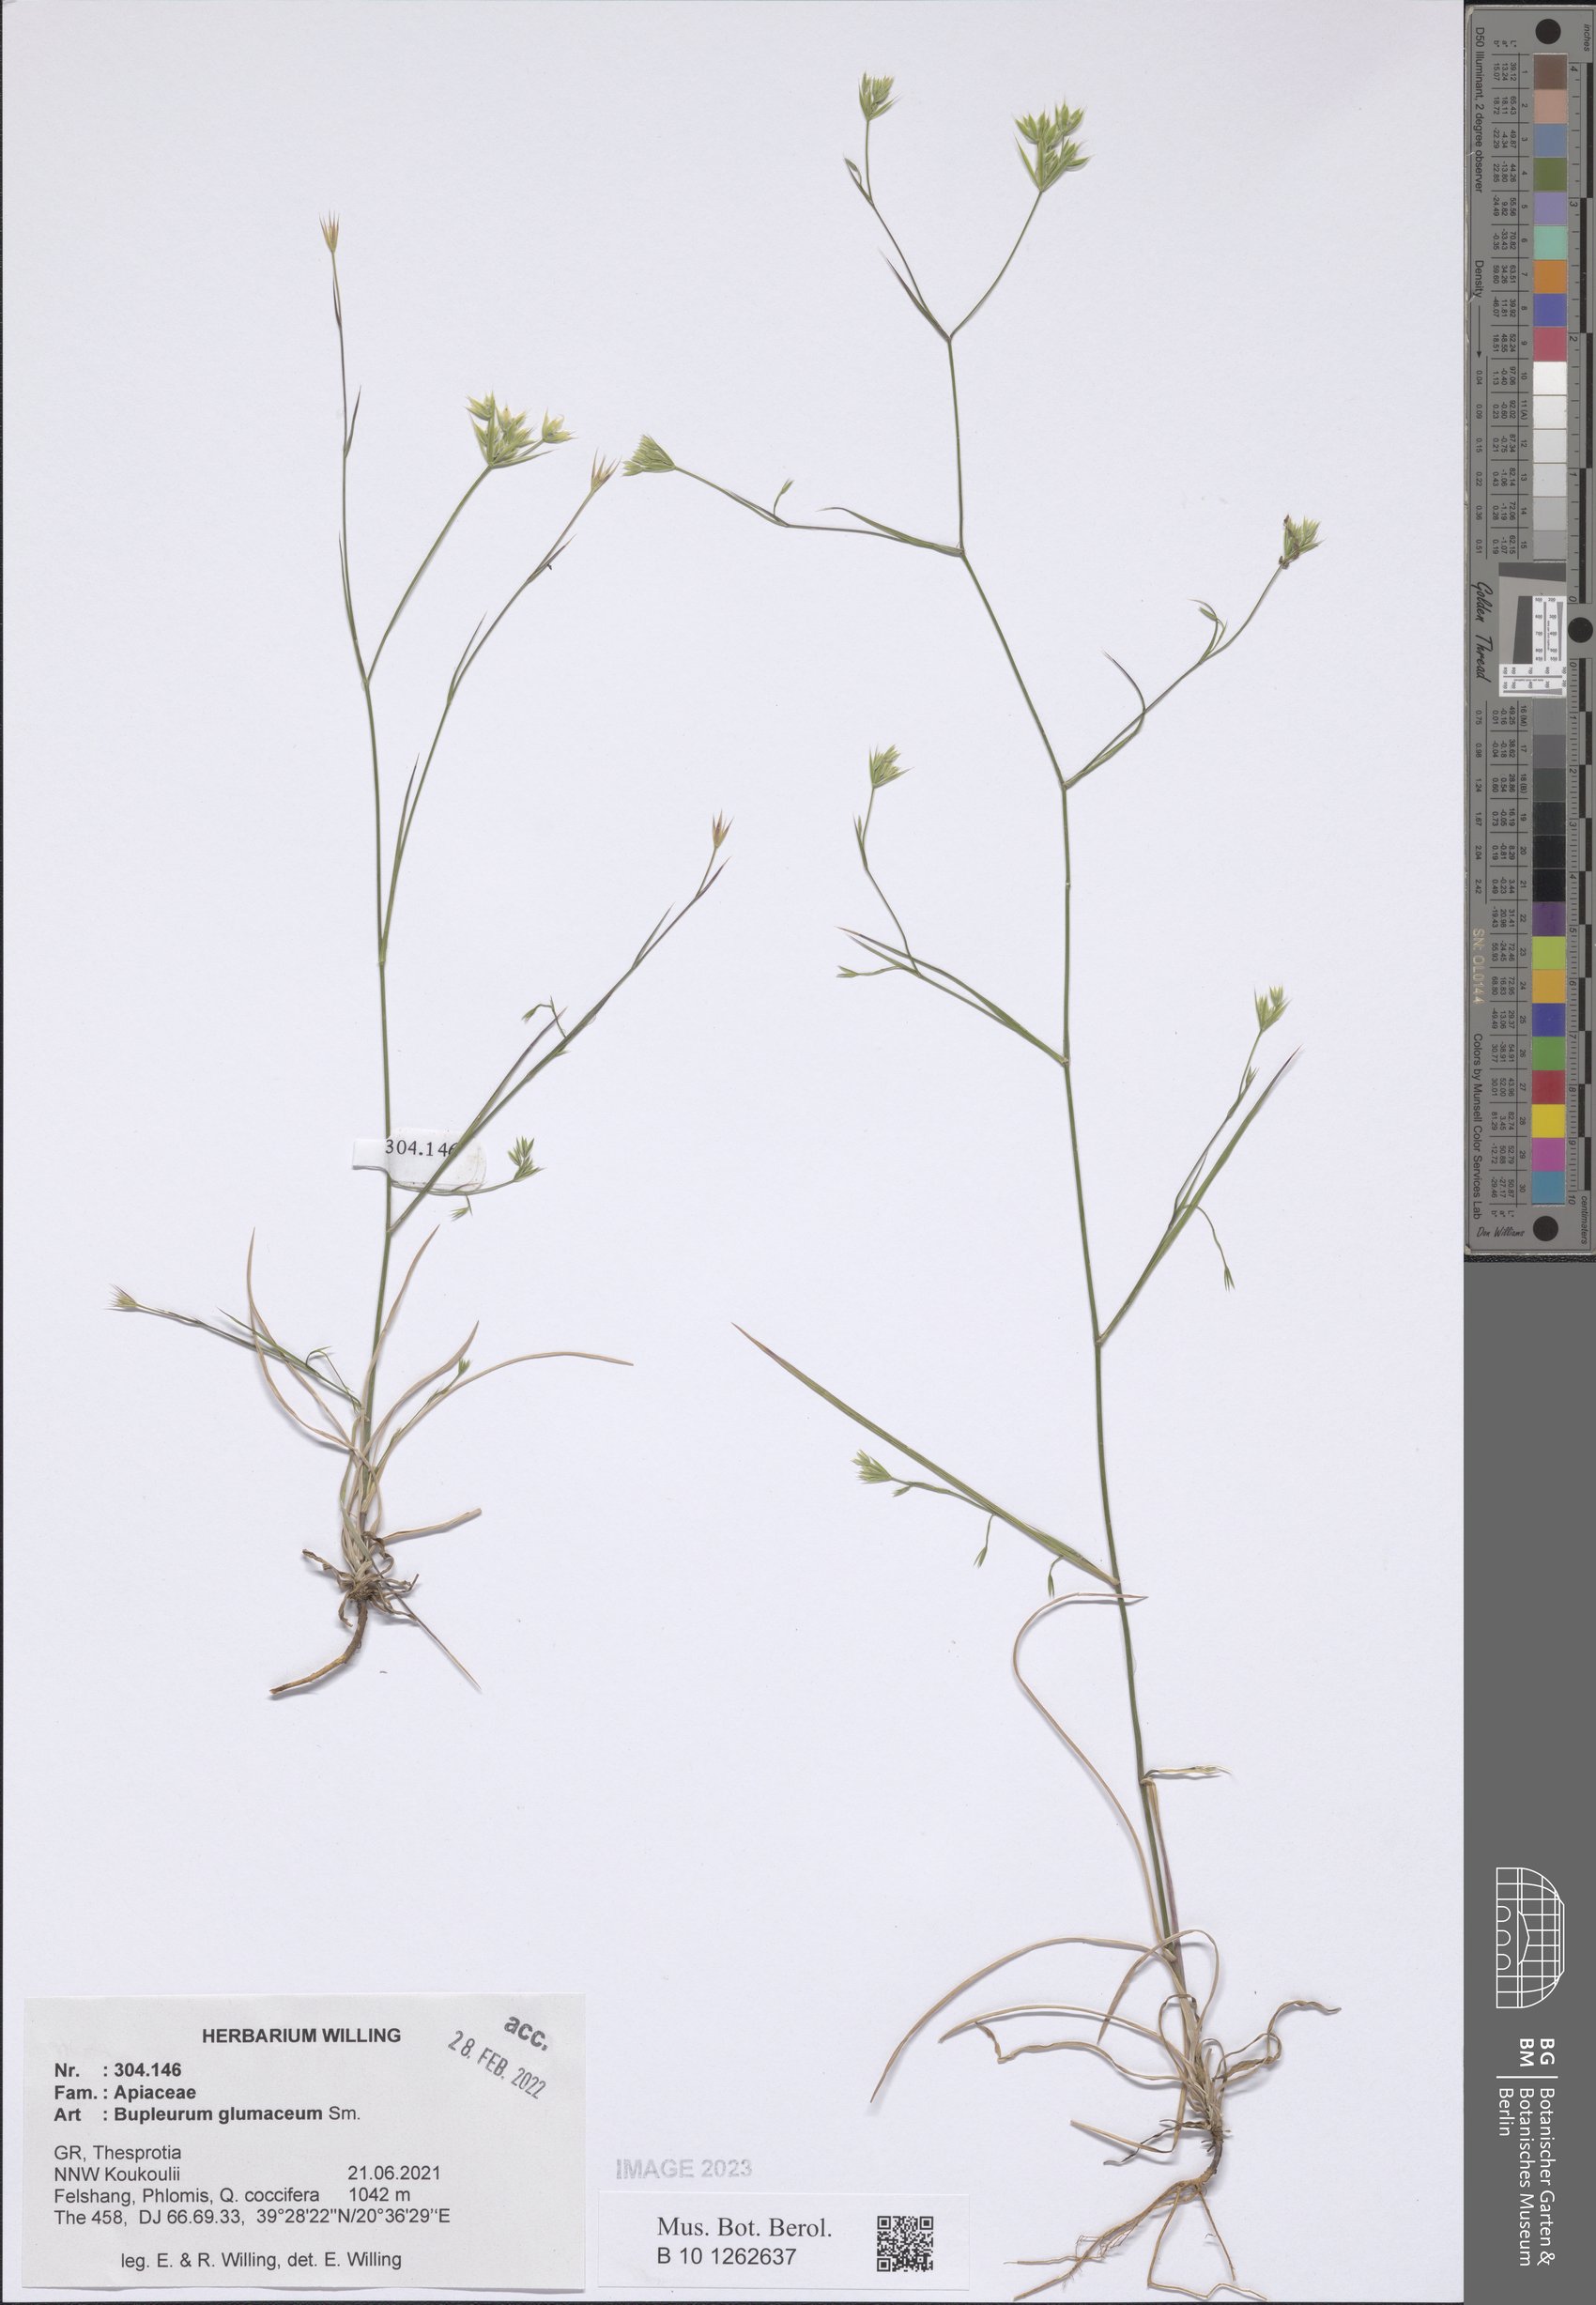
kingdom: Plantae
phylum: Tracheophyta
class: Magnoliopsida
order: Apiales
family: Apiaceae
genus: Bupleurum
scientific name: Bupleurum glumaceum
